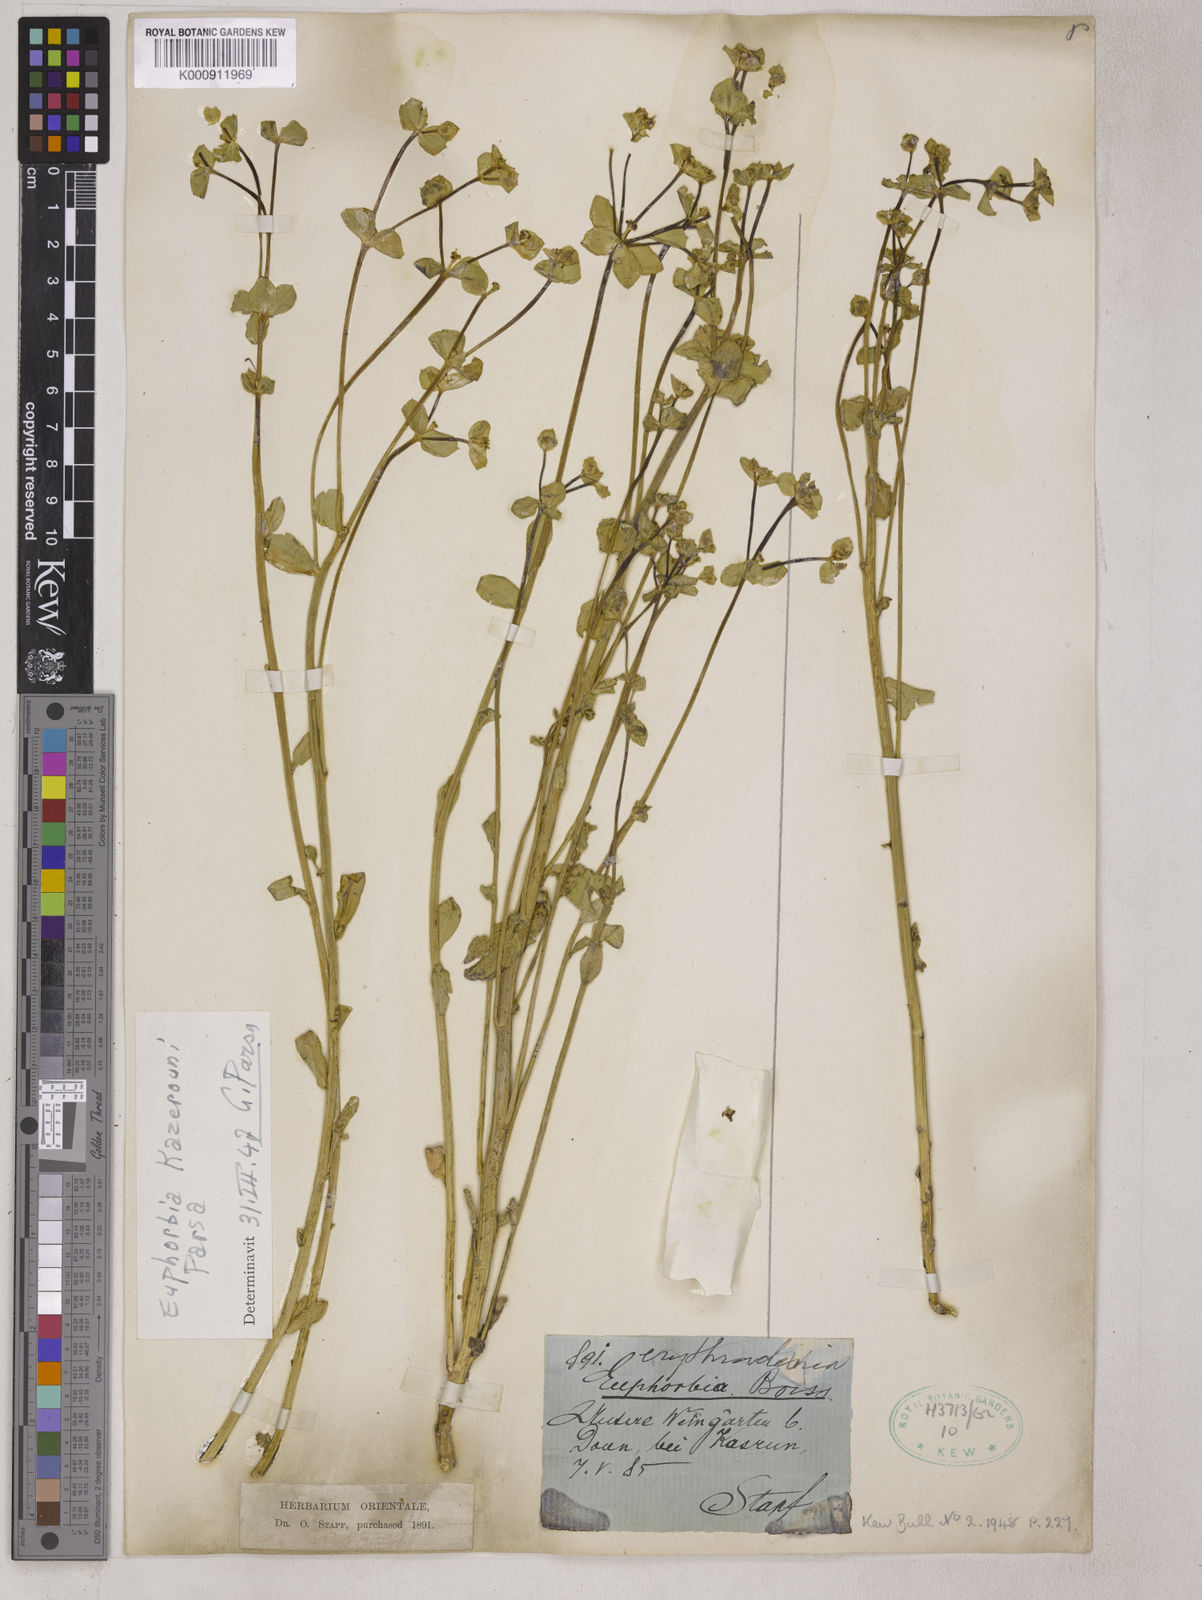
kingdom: Plantae
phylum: Tracheophyta
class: Magnoliopsida
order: Malpighiales
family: Euphorbiaceae
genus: Euphorbia
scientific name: Euphorbia microsciadia
